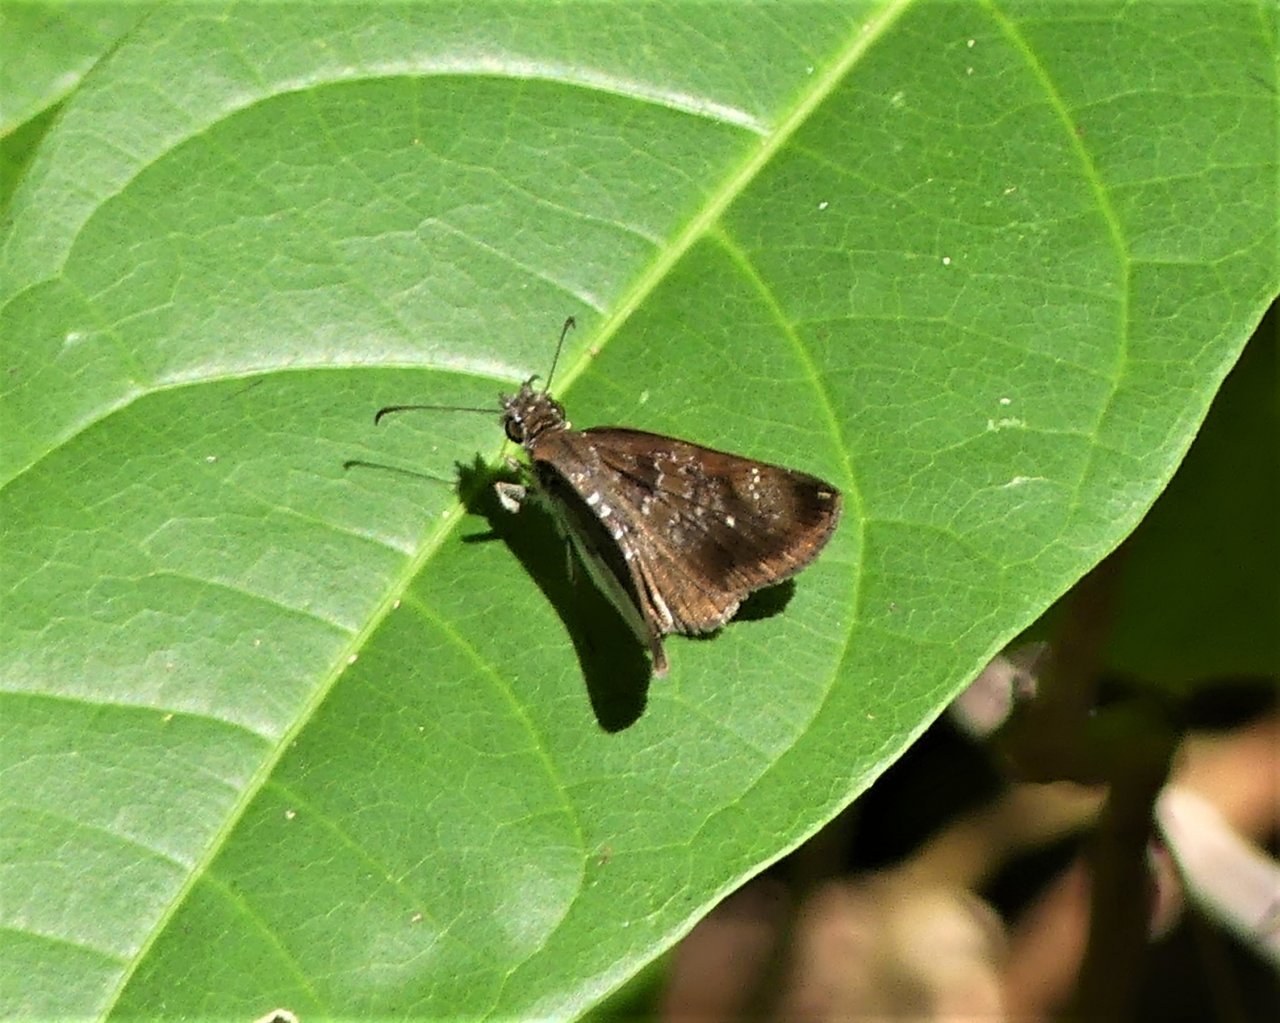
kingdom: Animalia
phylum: Arthropoda
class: Insecta
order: Lepidoptera
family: Hesperiidae
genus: Sophista
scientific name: Sophista bifasciata
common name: Metal-studded Skipper
